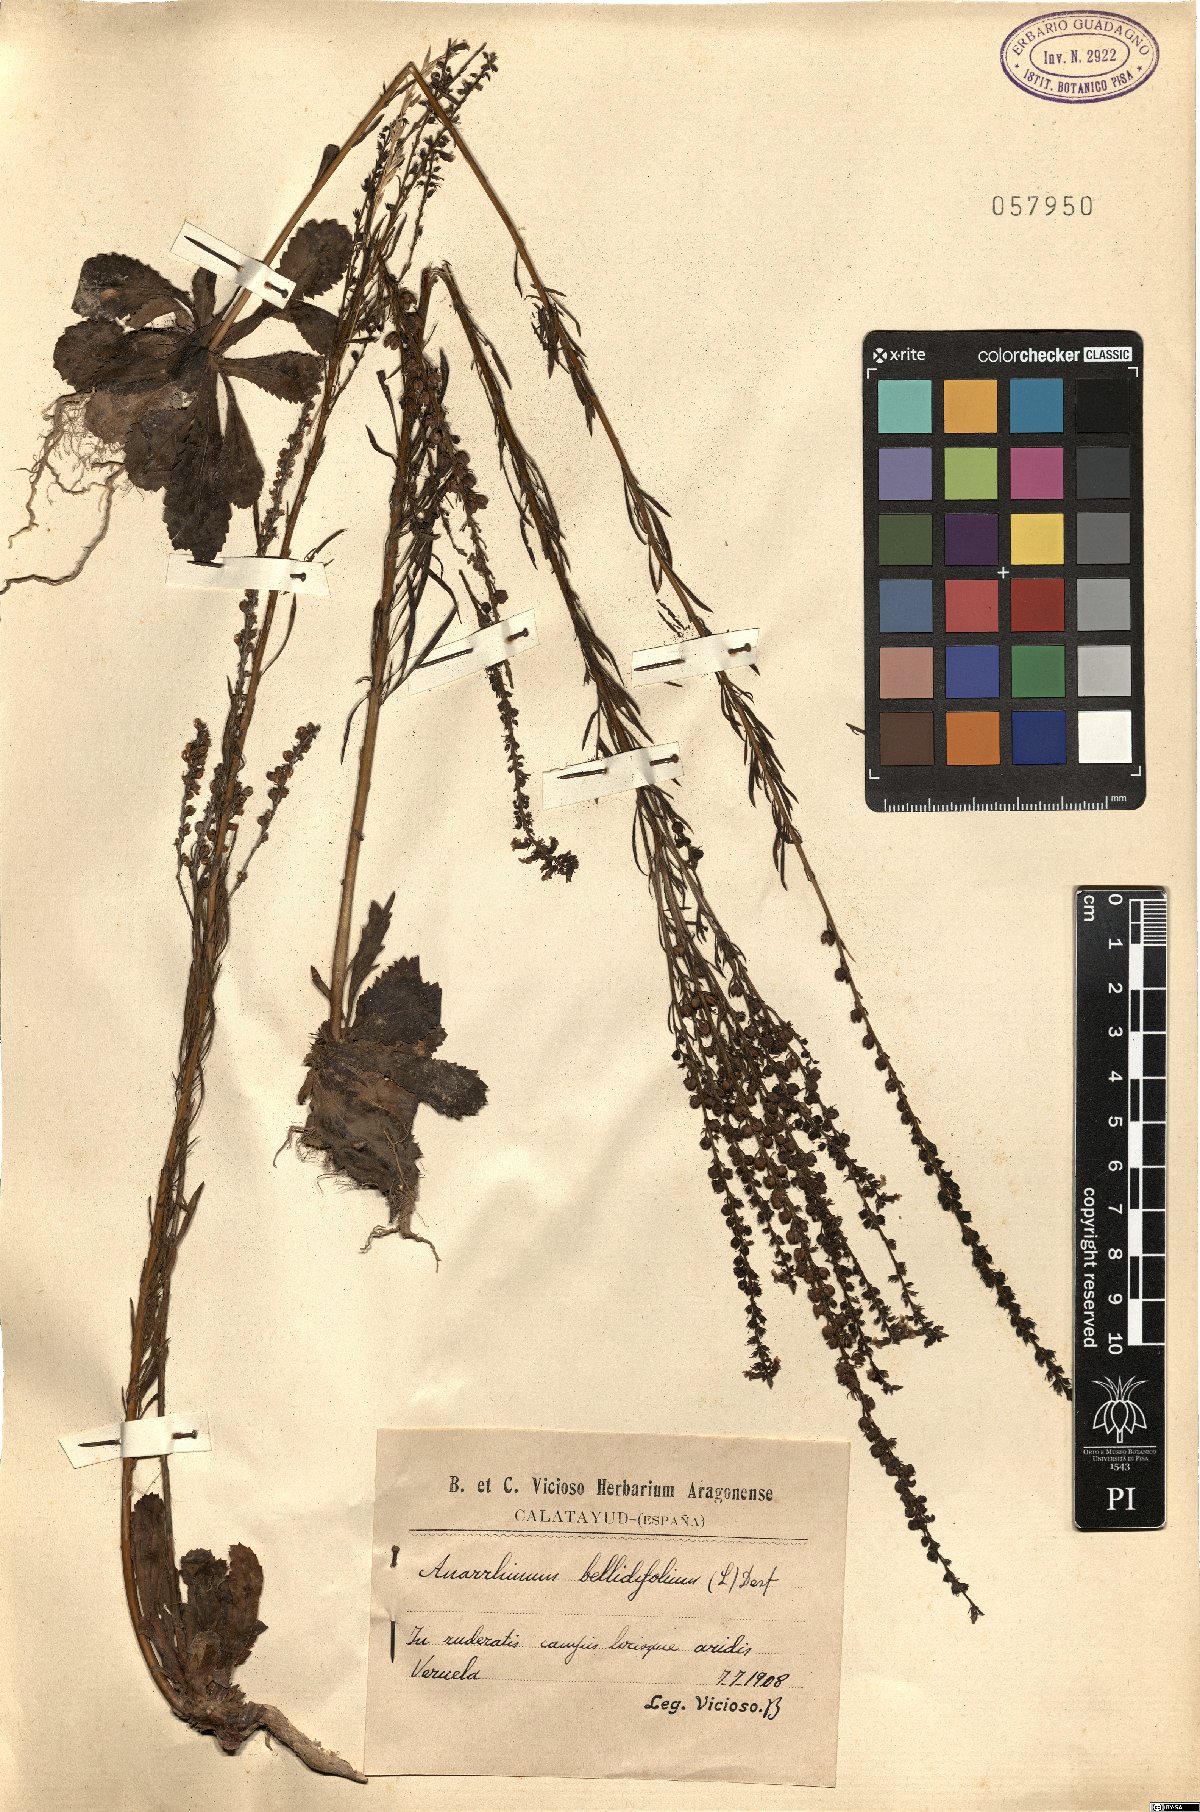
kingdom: Plantae
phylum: Tracheophyta
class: Magnoliopsida
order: Lamiales
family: Plantaginaceae
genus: Anarrhinum
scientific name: Anarrhinum bellidifolium
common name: Daisy-leaved toadflax
